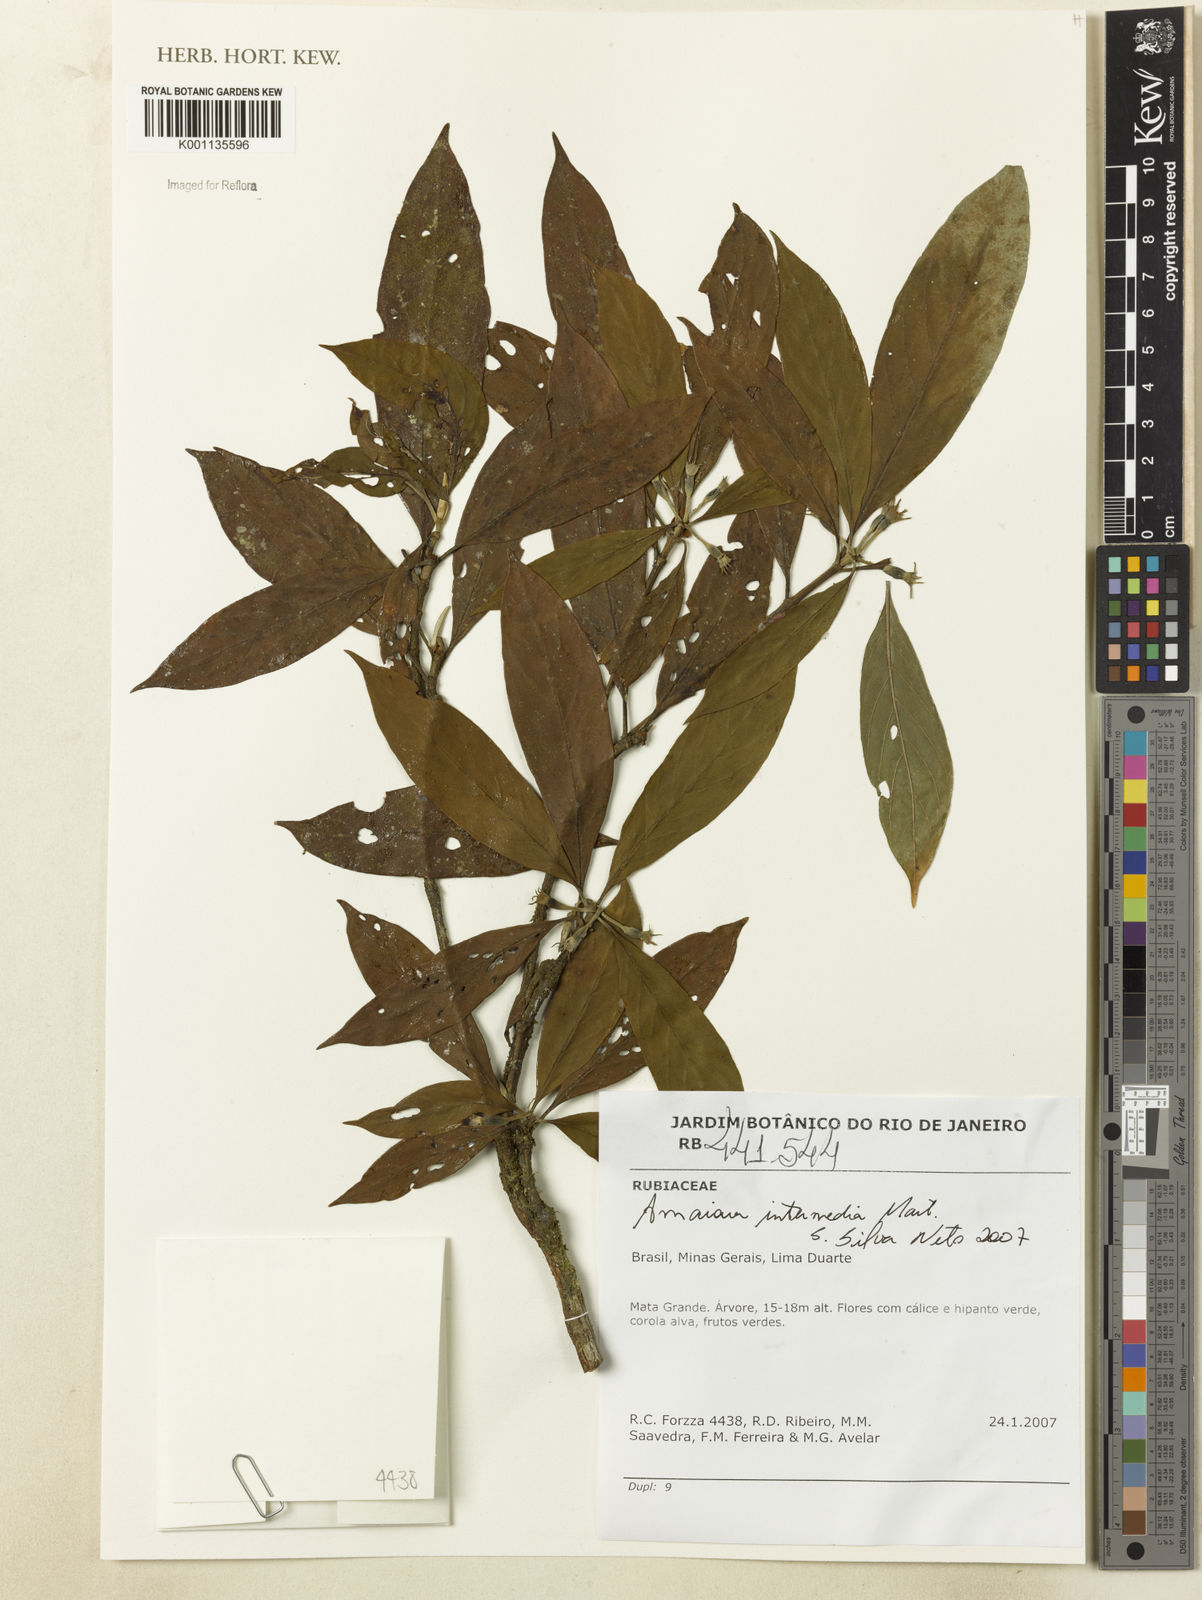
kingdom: Plantae
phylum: Tracheophyta
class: Magnoliopsida
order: Gentianales
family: Rubiaceae
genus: Amaioua
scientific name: Amaioua intermedia
